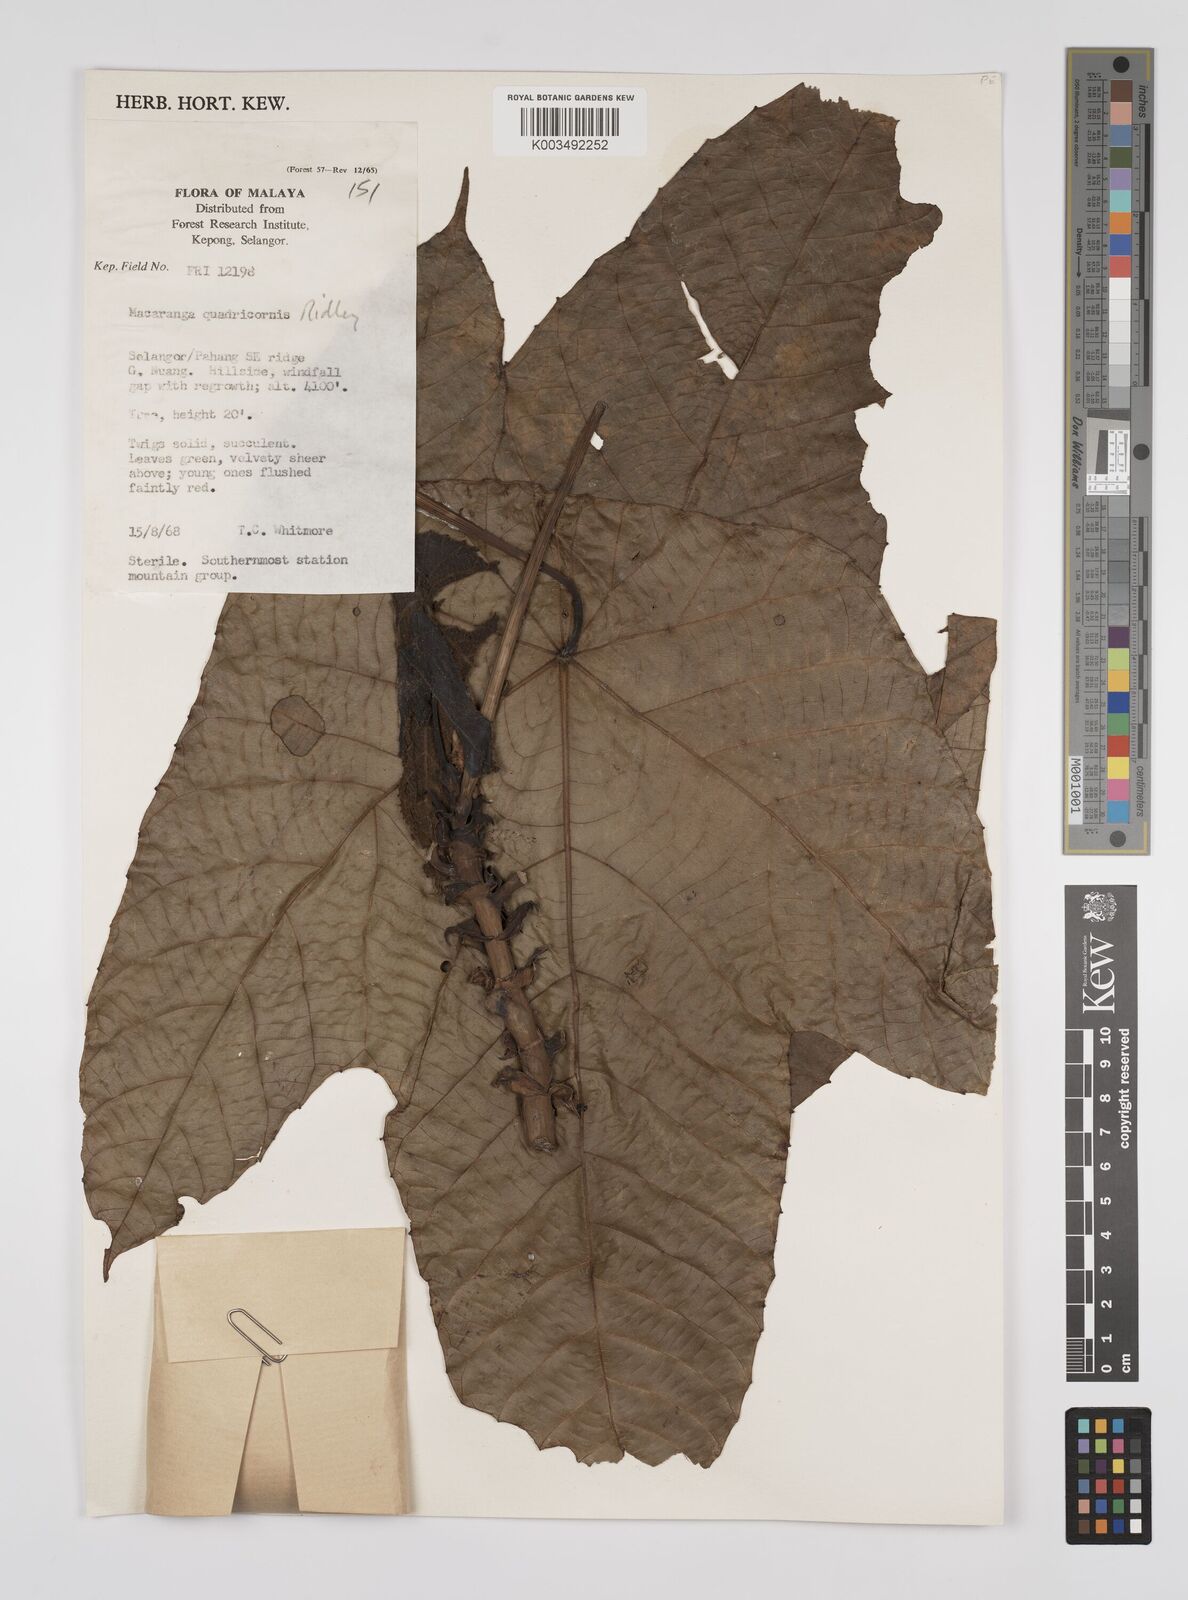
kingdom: Plantae
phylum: Tracheophyta
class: Magnoliopsida
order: Malpighiales
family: Euphorbiaceae
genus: Macaranga
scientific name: Macaranga triloba
